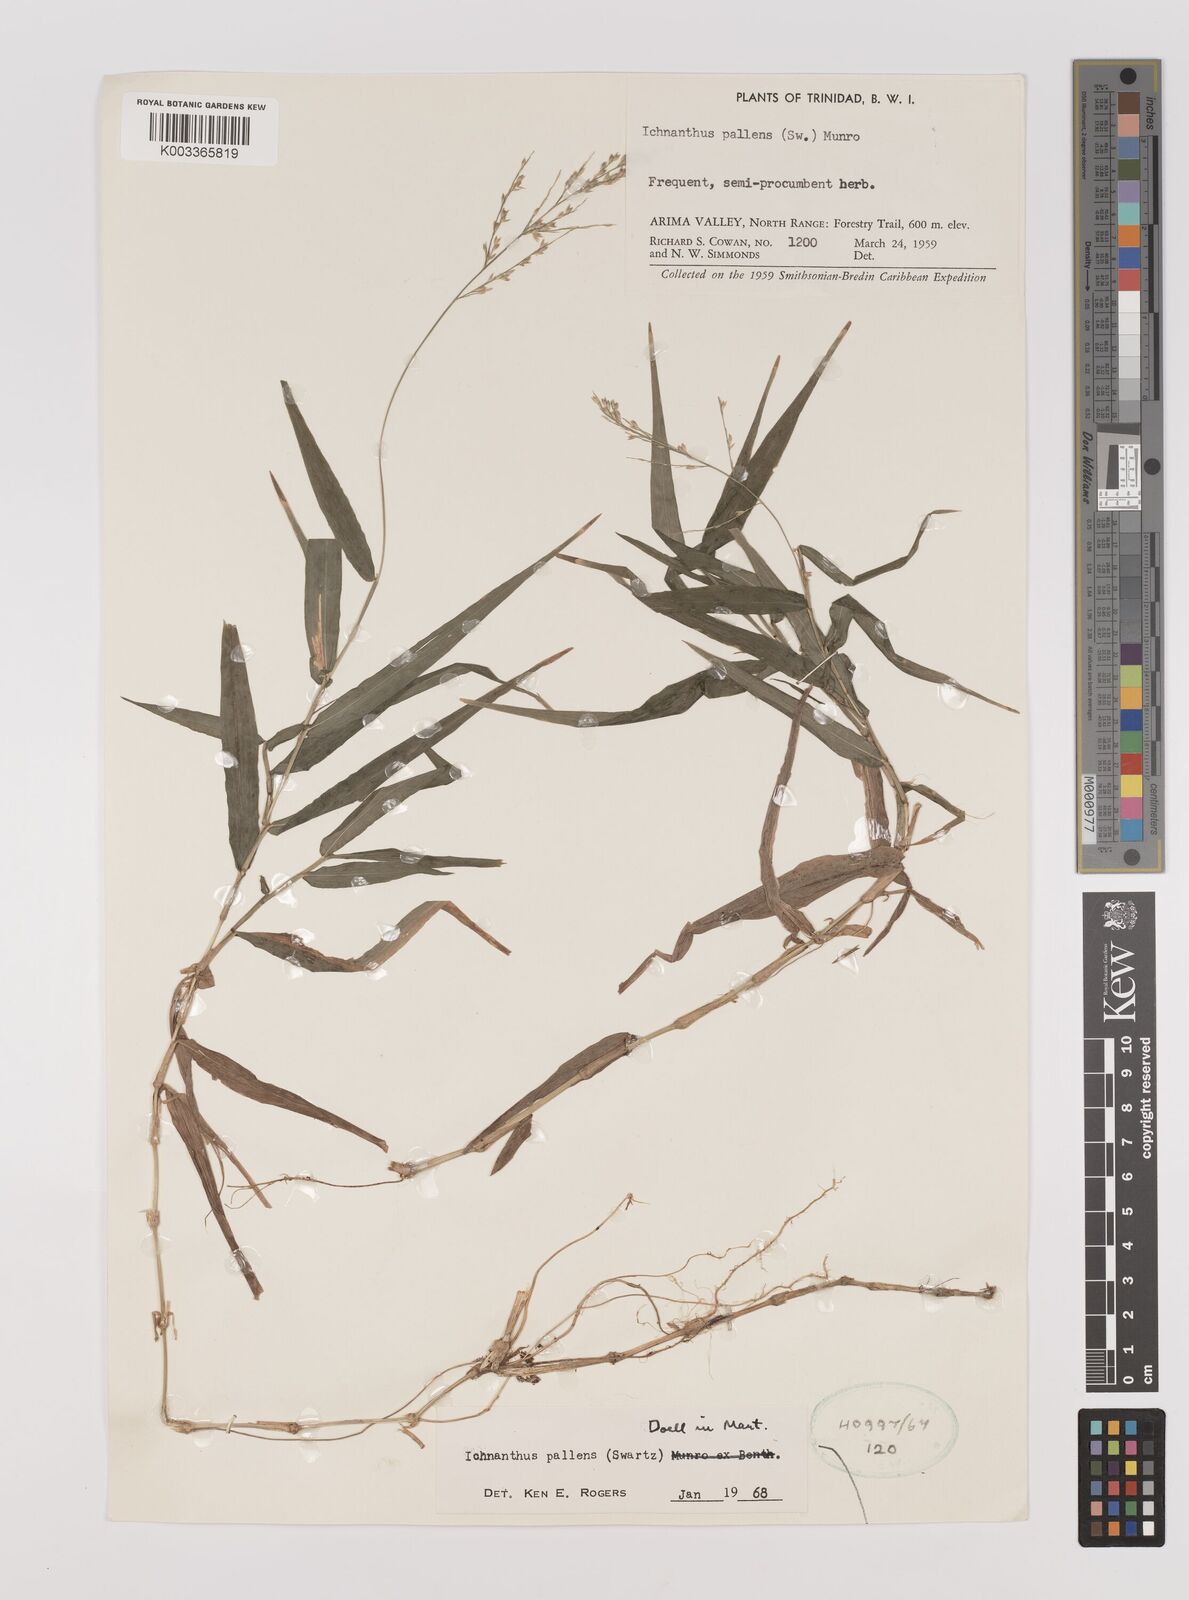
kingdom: Plantae
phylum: Tracheophyta
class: Liliopsida
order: Poales
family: Poaceae
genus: Ichnanthus
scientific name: Ichnanthus pallens
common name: Water grass
